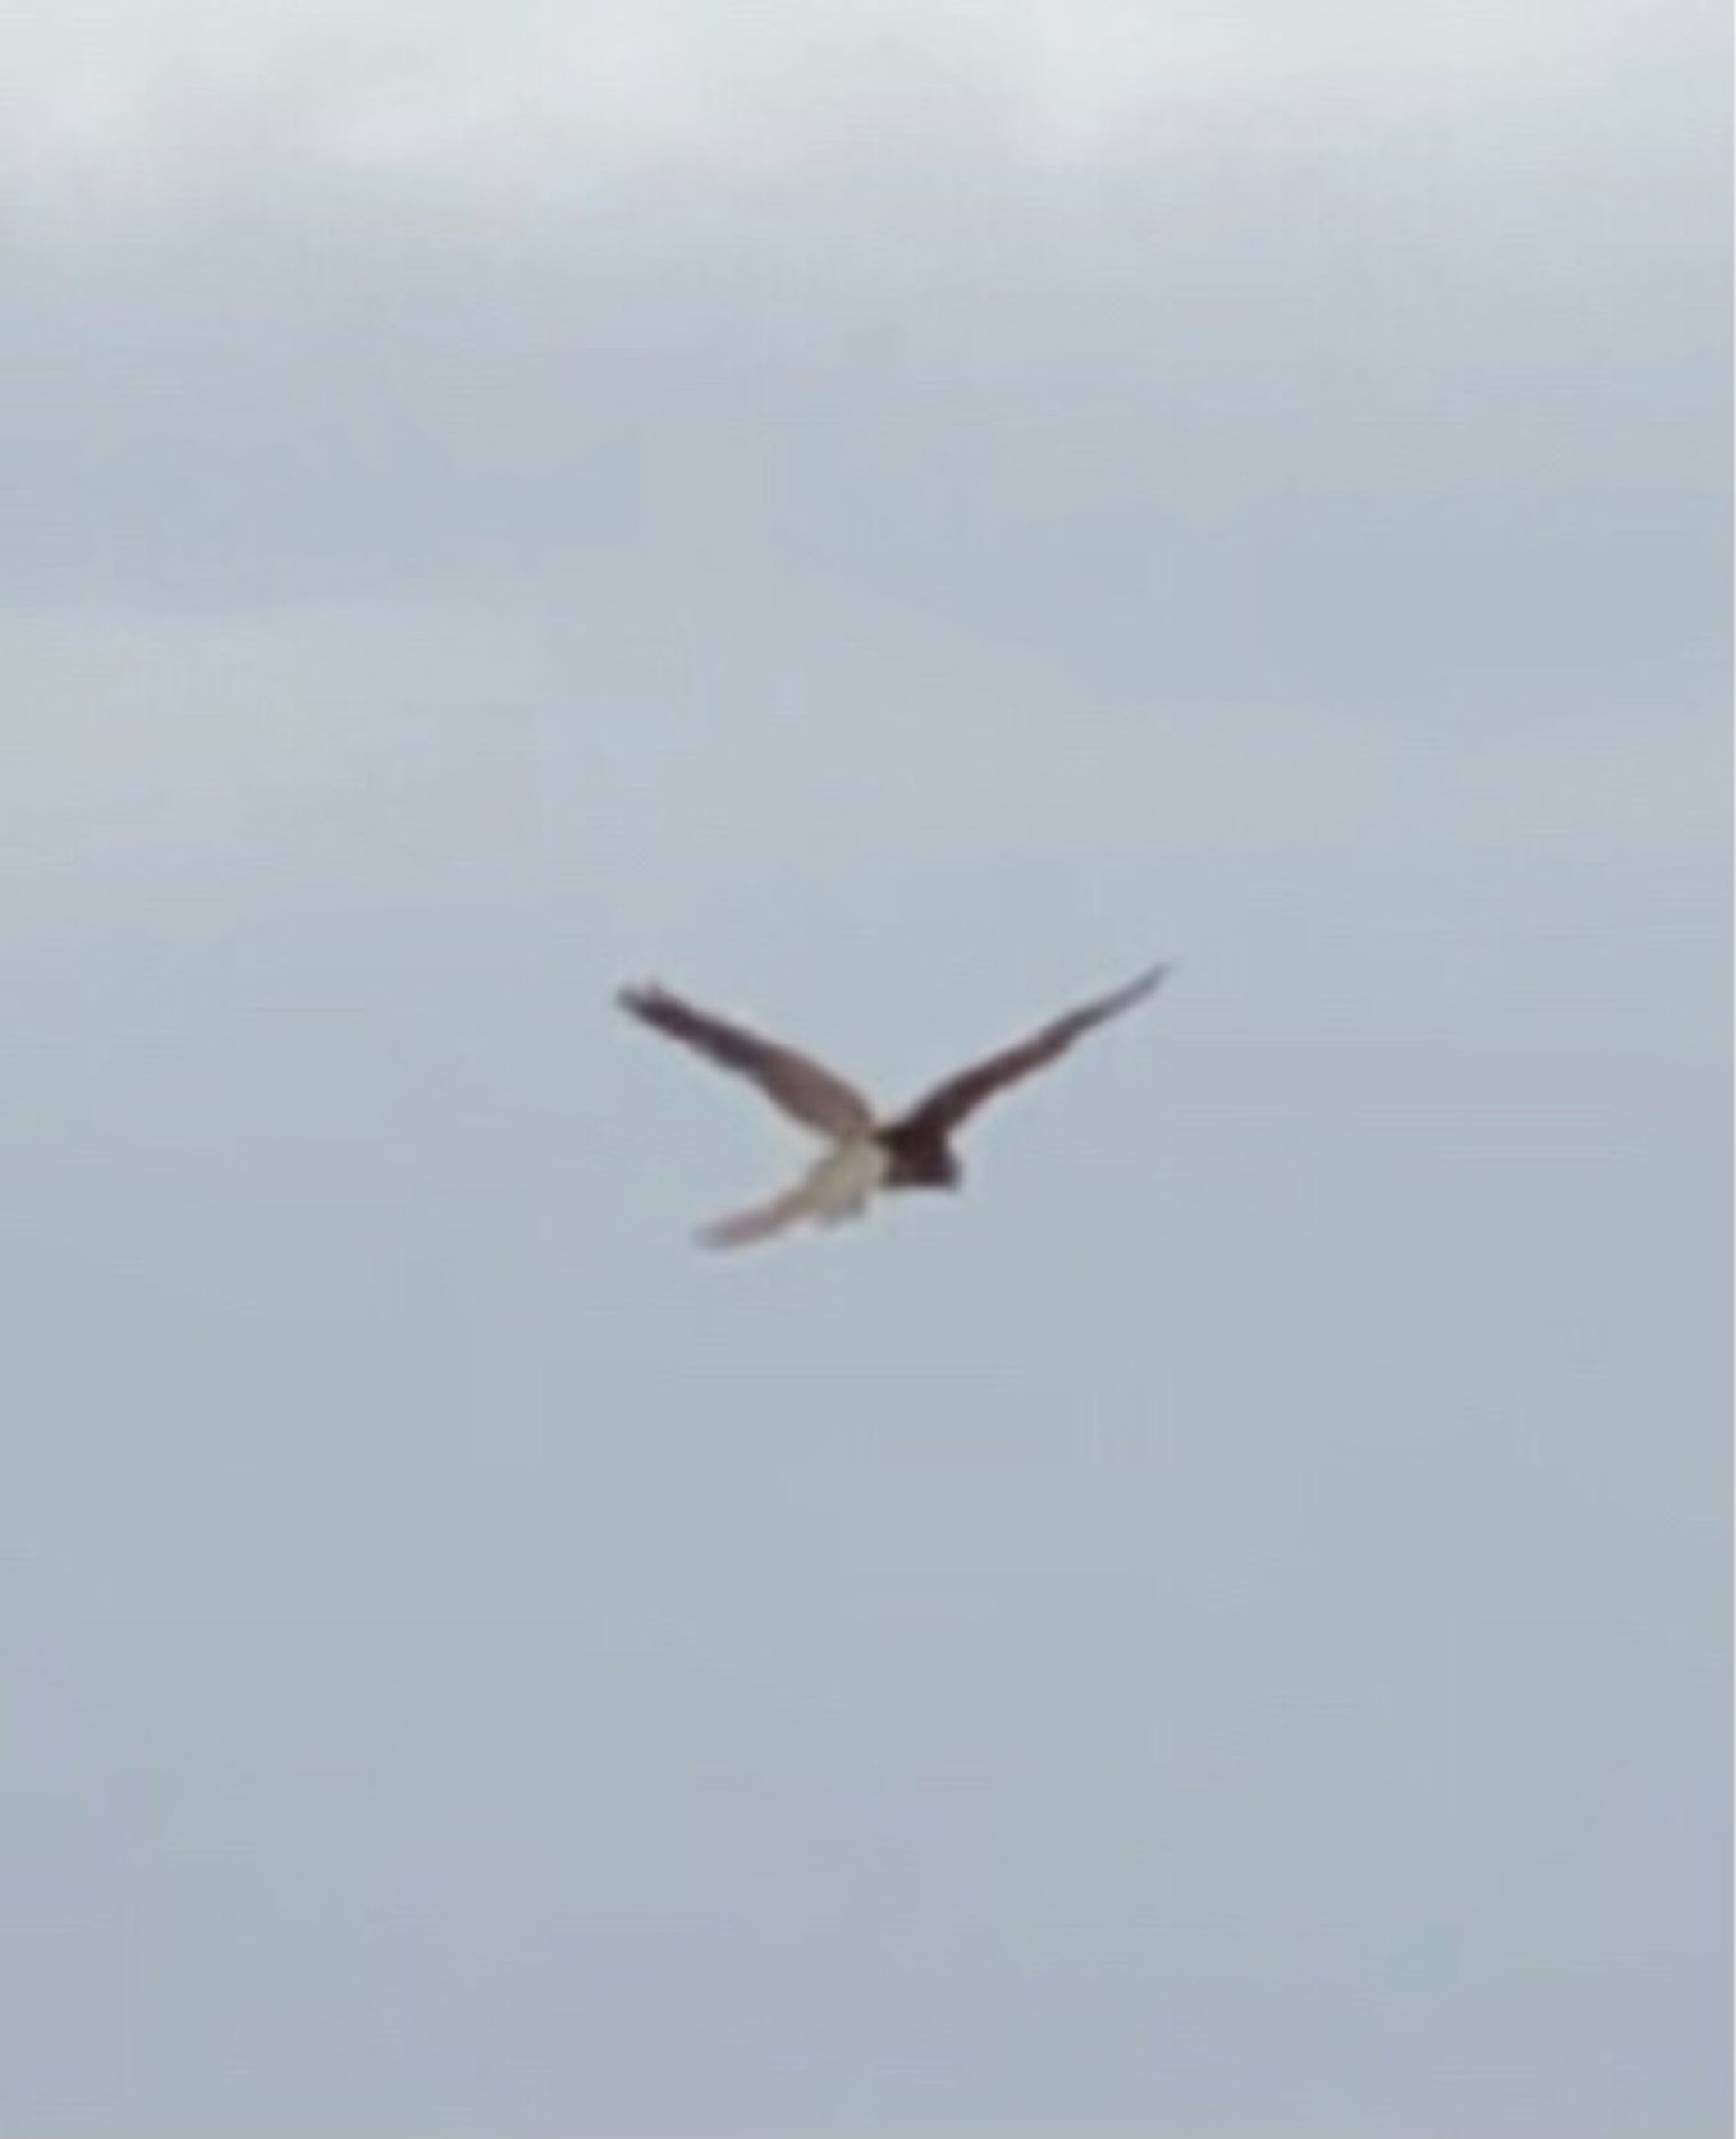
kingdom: Animalia
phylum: Chordata
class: Aves
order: Falconiformes
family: Falconidae
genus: Falco
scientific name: Falco tinnunculus
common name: Tårnfalk
